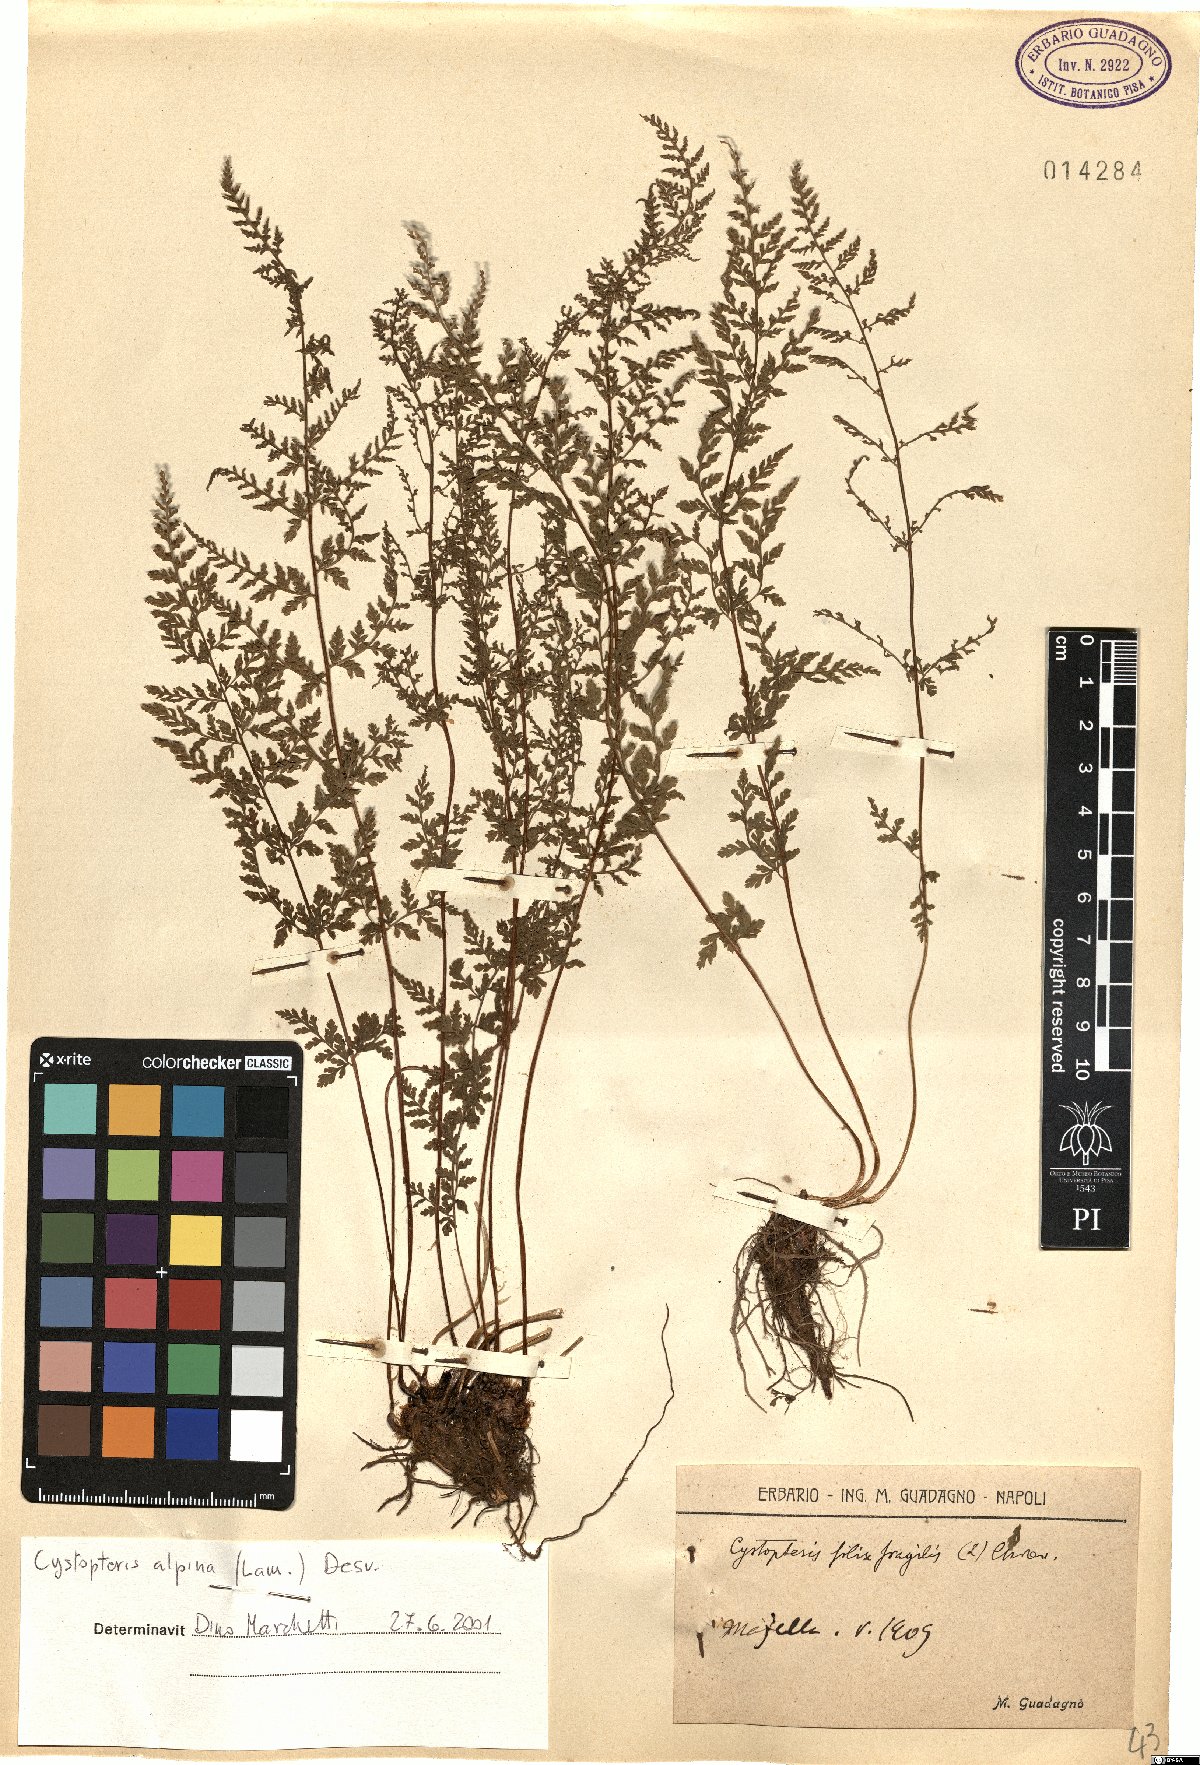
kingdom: Plantae
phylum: Tracheophyta
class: Polypodiopsida
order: Polypodiales
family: Cystopteridaceae
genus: Cystopteris
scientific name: Cystopteris alpina
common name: Alpine bladder-fern
